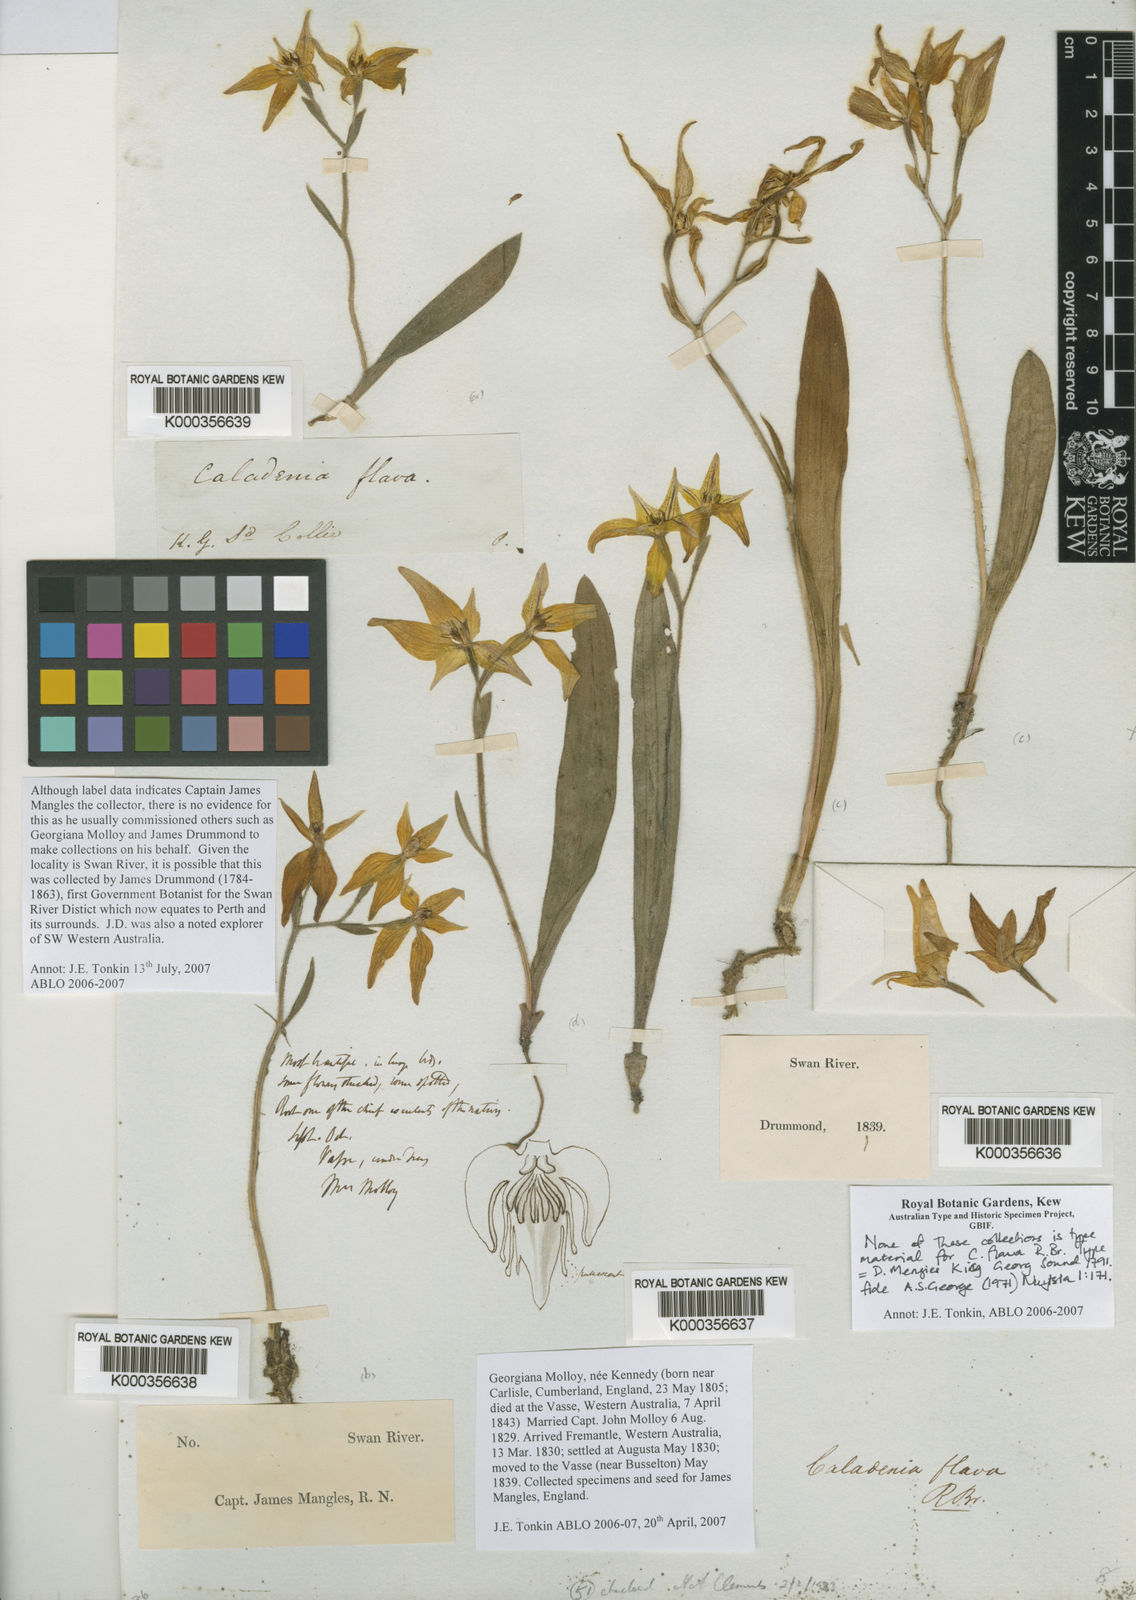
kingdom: Plantae
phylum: Tracheophyta
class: Liliopsida
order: Asparagales
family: Orchidaceae
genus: Caladenia
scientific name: Caladenia flava
